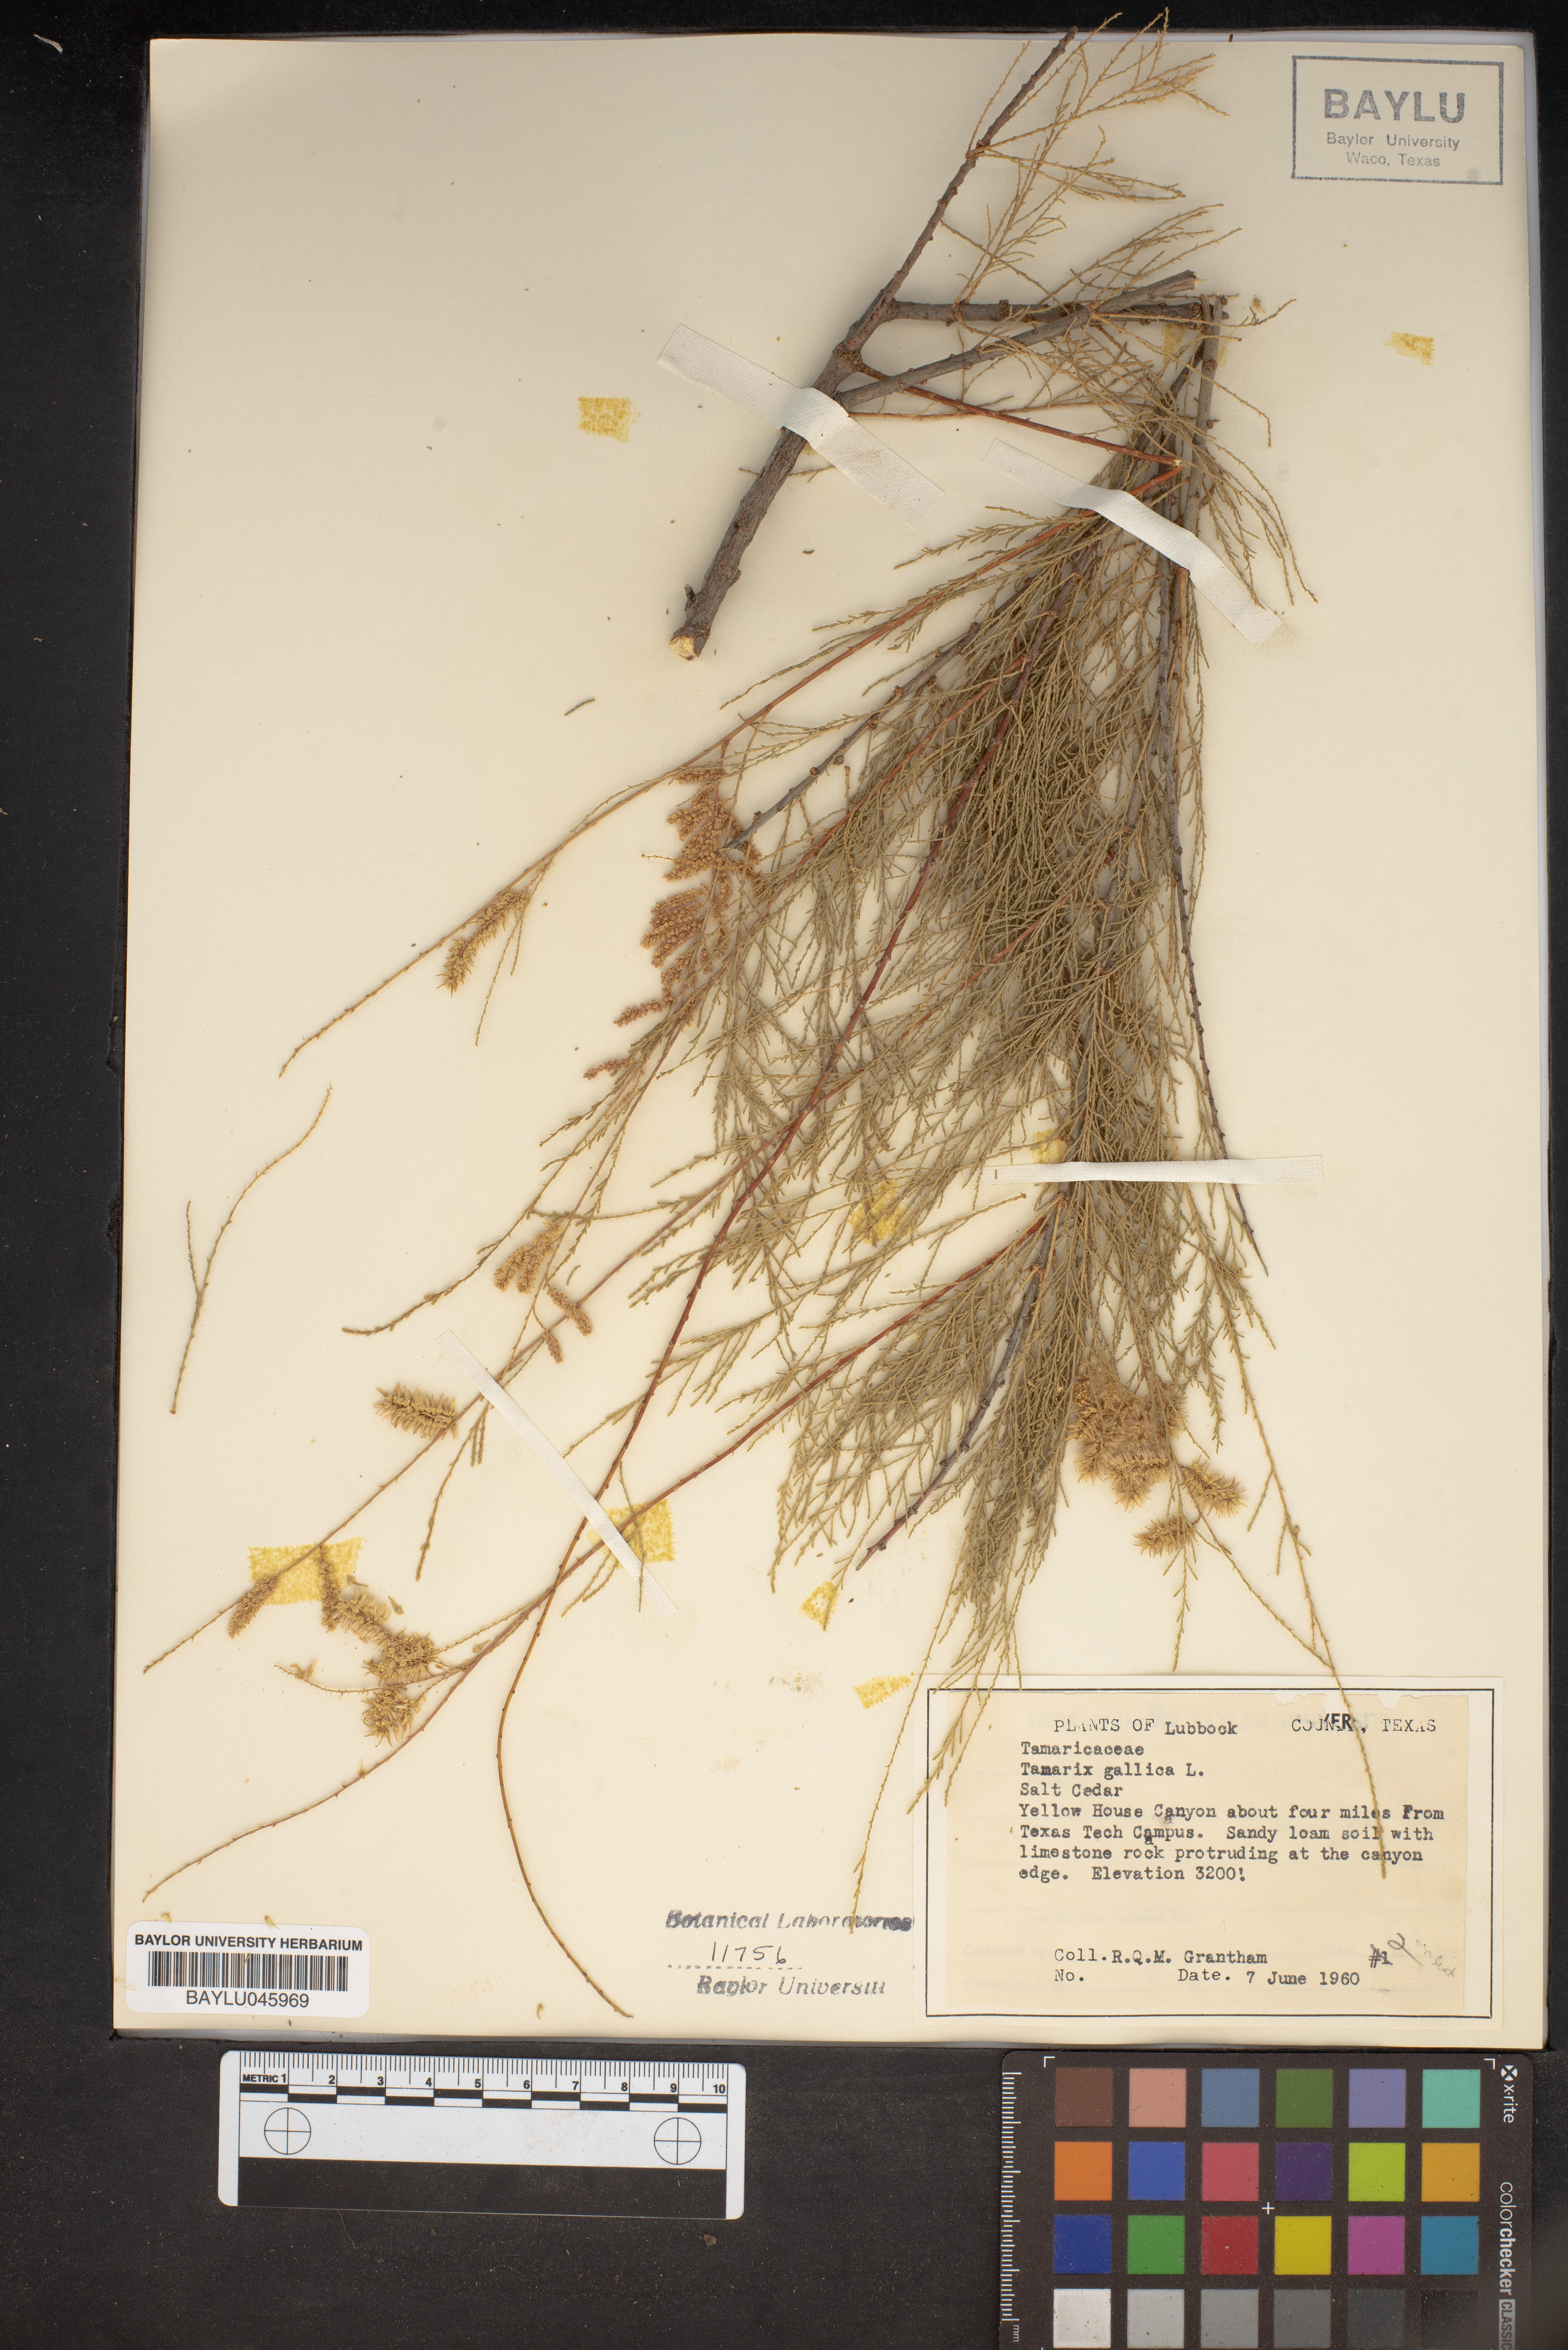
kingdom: Plantae
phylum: Tracheophyta
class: Magnoliopsida
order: Caryophyllales
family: Tamaricaceae
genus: Tamarix
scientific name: Tamarix gallica
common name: Tamarisk
